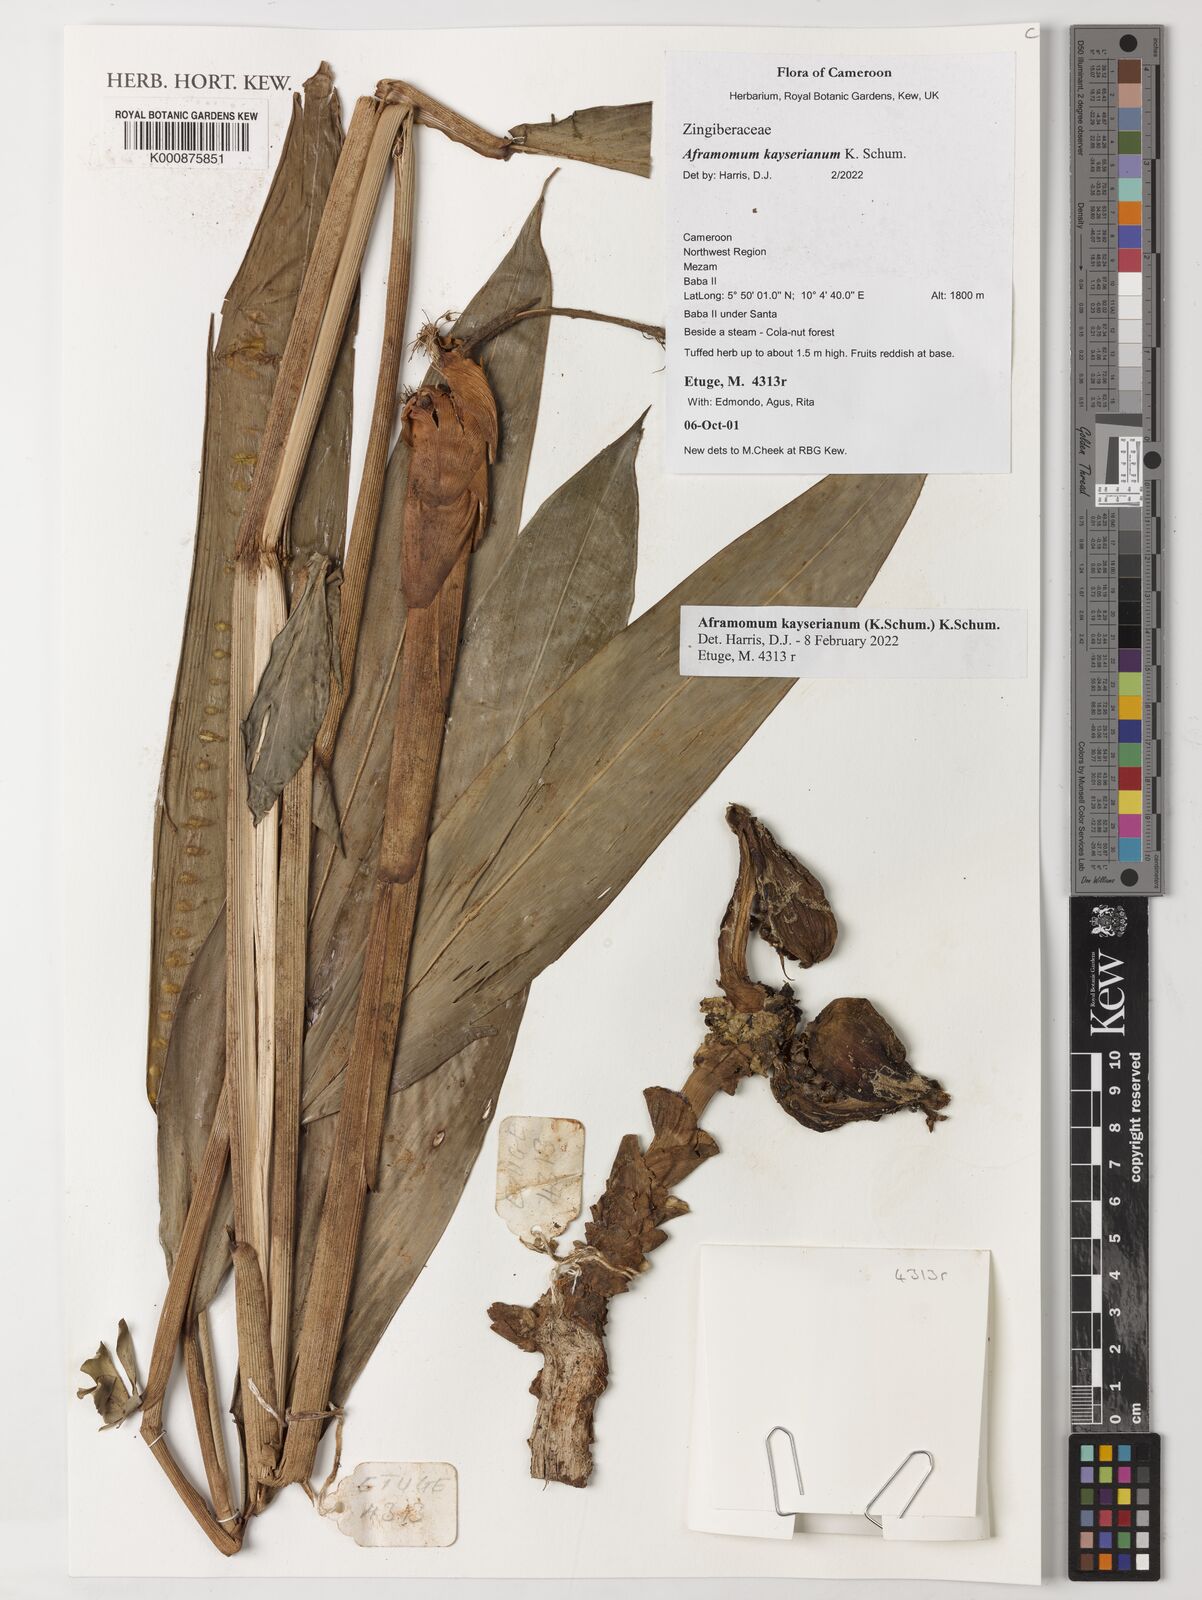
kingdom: Plantae
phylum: Tracheophyta
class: Liliopsida
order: Zingiberales
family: Zingiberaceae
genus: Aframomum
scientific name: Aframomum kayserianum
